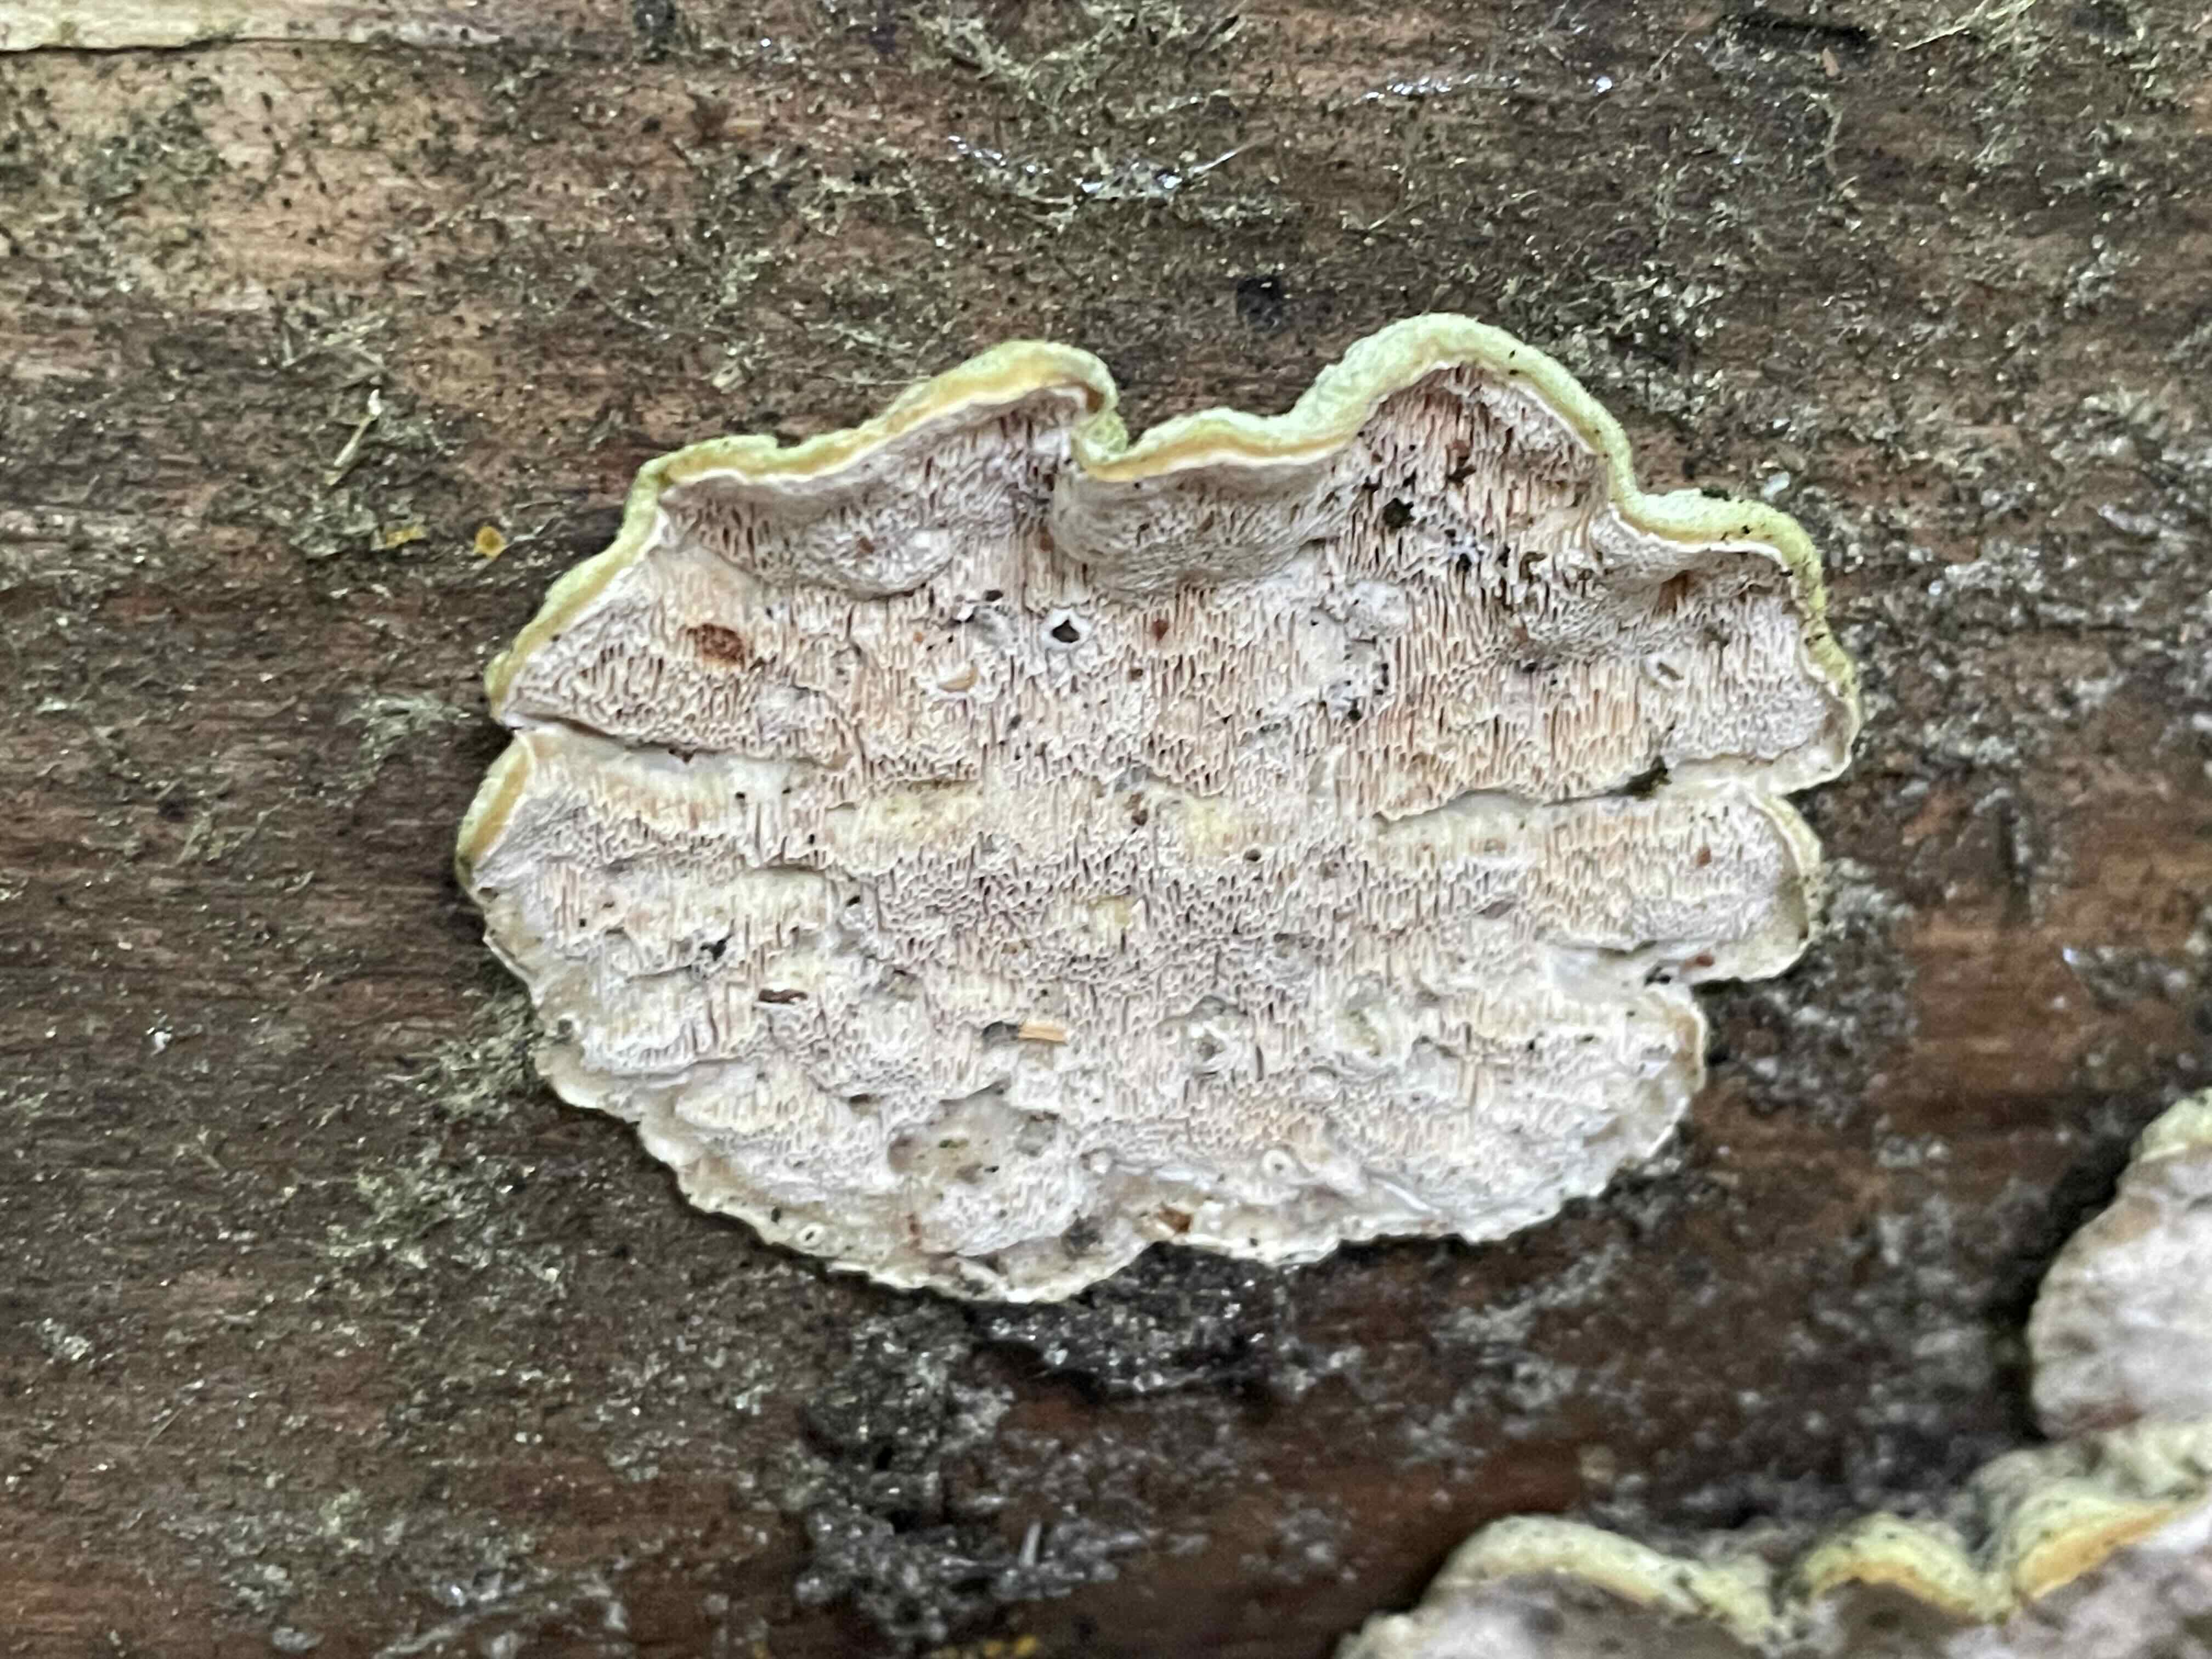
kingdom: Fungi
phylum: Basidiomycota
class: Agaricomycetes
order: Polyporales
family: Incrustoporiaceae
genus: Skeletocutis
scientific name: Skeletocutis
